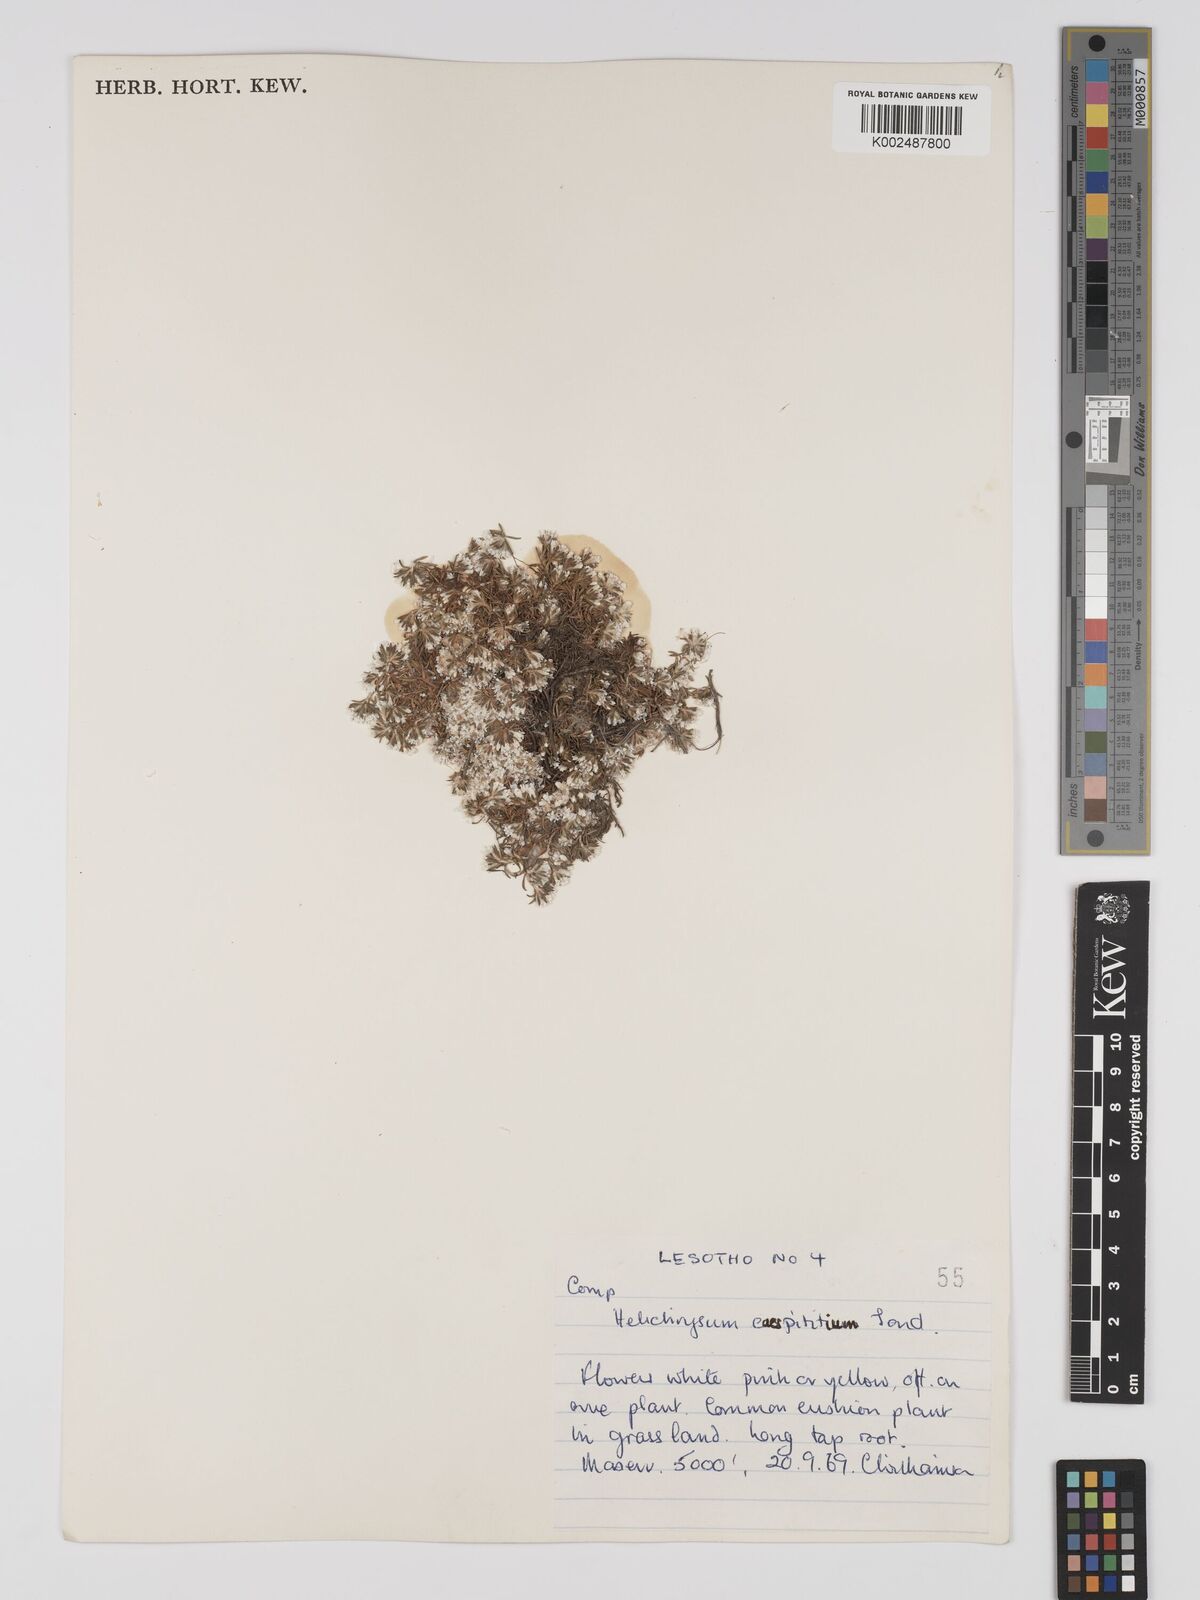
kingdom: Plantae
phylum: Tracheophyta
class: Magnoliopsida
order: Asterales
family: Asteraceae
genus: Helichrysum
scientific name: Helichrysum caespititium
